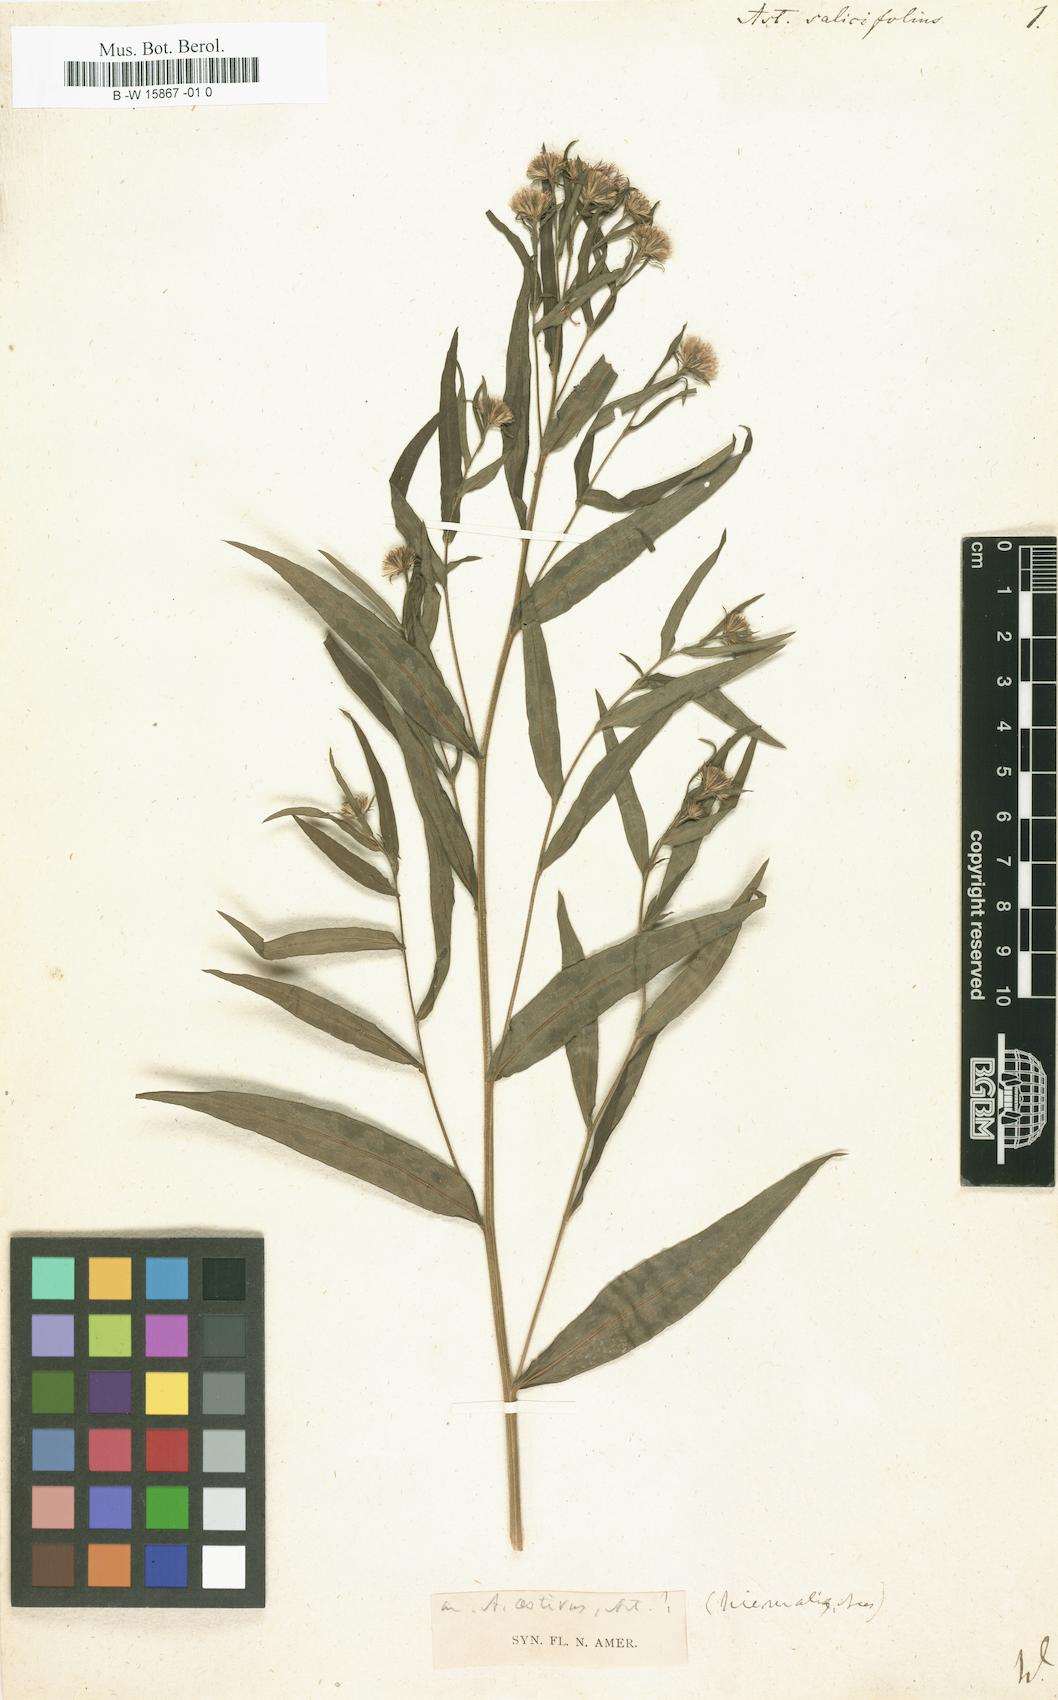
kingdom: Plantae
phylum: Tracheophyta
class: Magnoliopsida
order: Asterales
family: Asteraceae
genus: Aster
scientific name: Aster salicifolius
